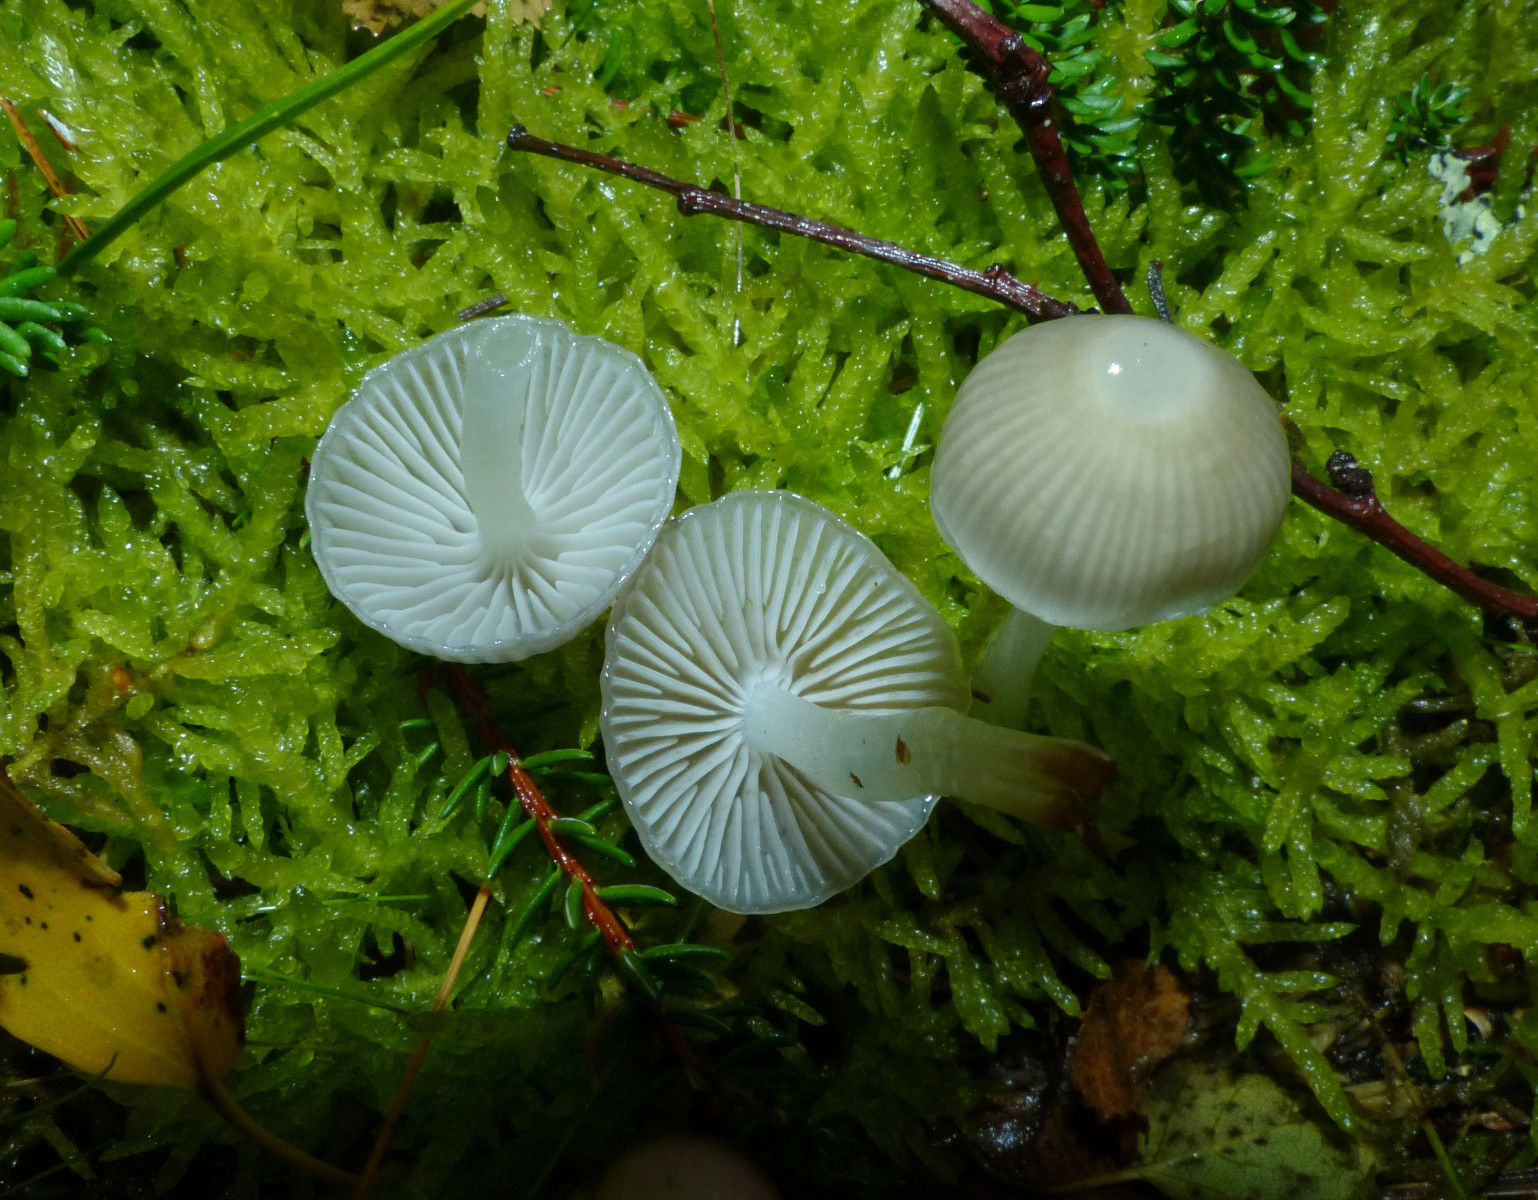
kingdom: Fungi
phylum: Basidiomycota
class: Agaricomycetes
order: Agaricales
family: Mycenaceae
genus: Mycena
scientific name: Mycena clavicularis
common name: fyrre-huesvamp
